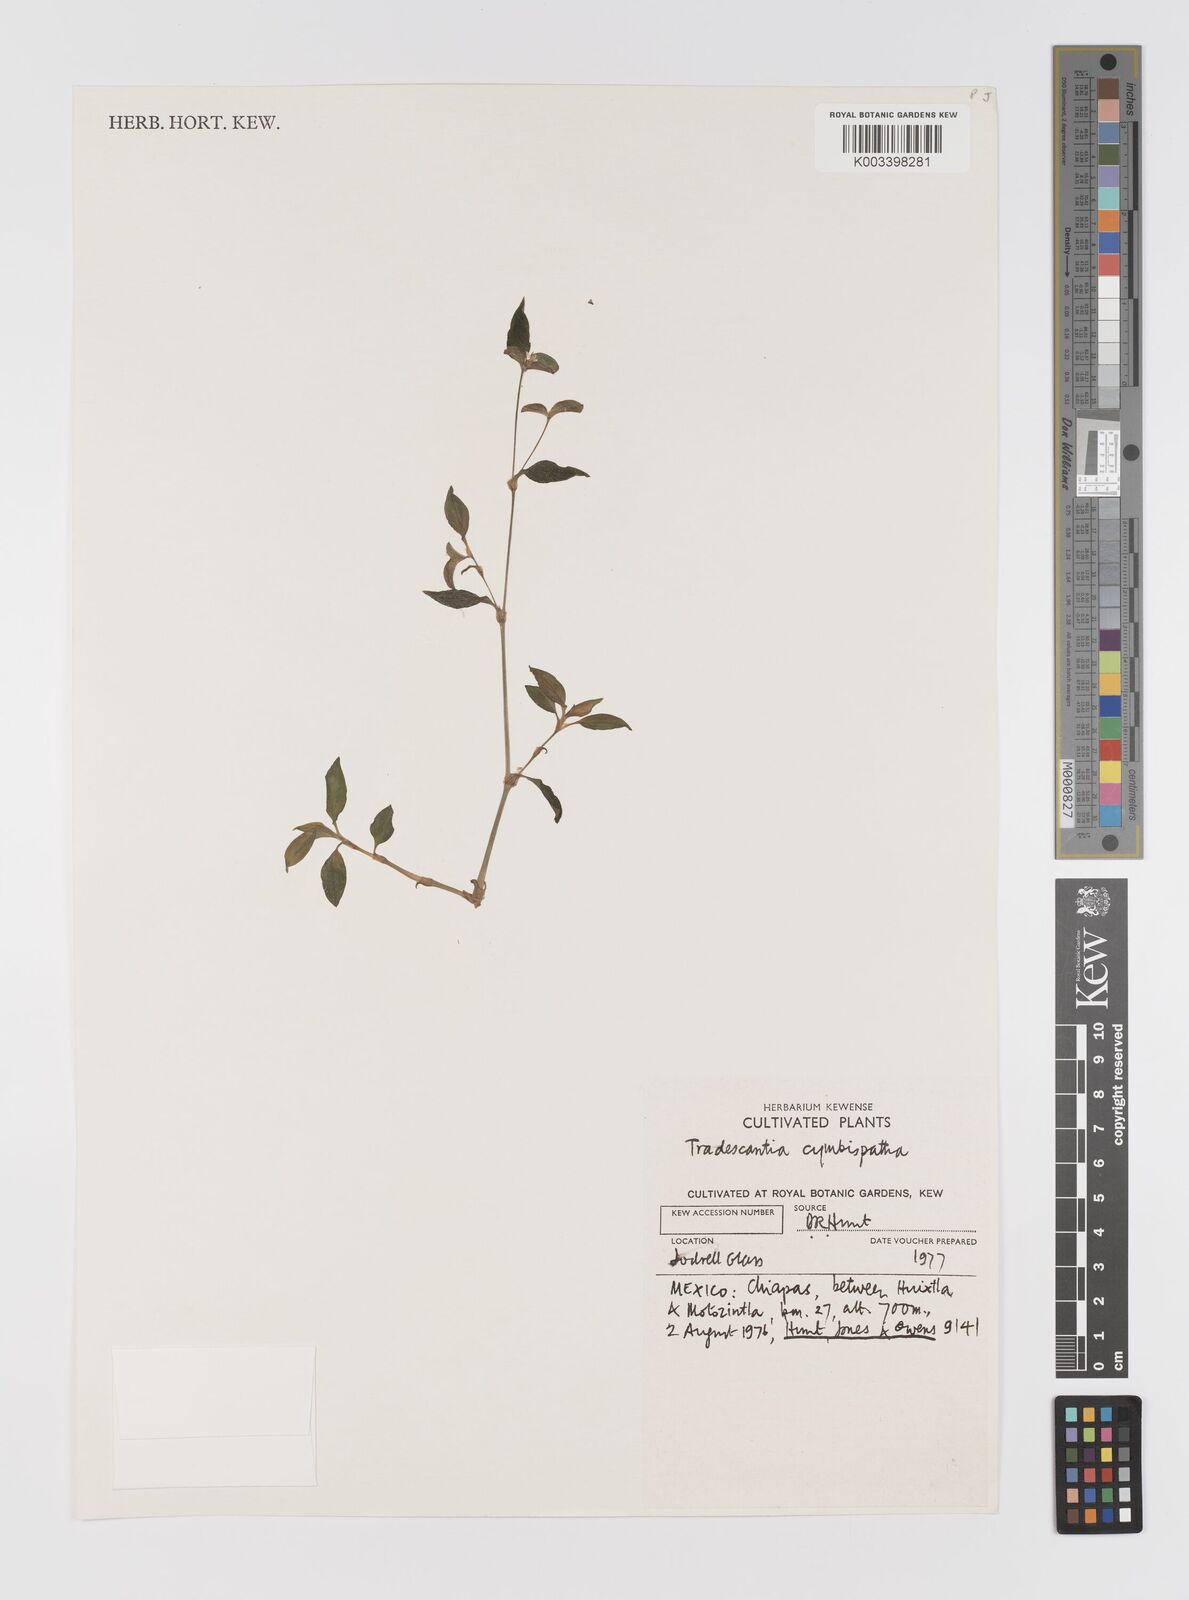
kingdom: Plantae
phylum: Tracheophyta
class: Liliopsida
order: Commelinales
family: Commelinaceae
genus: Tradescantia
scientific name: Tradescantia gracillima
